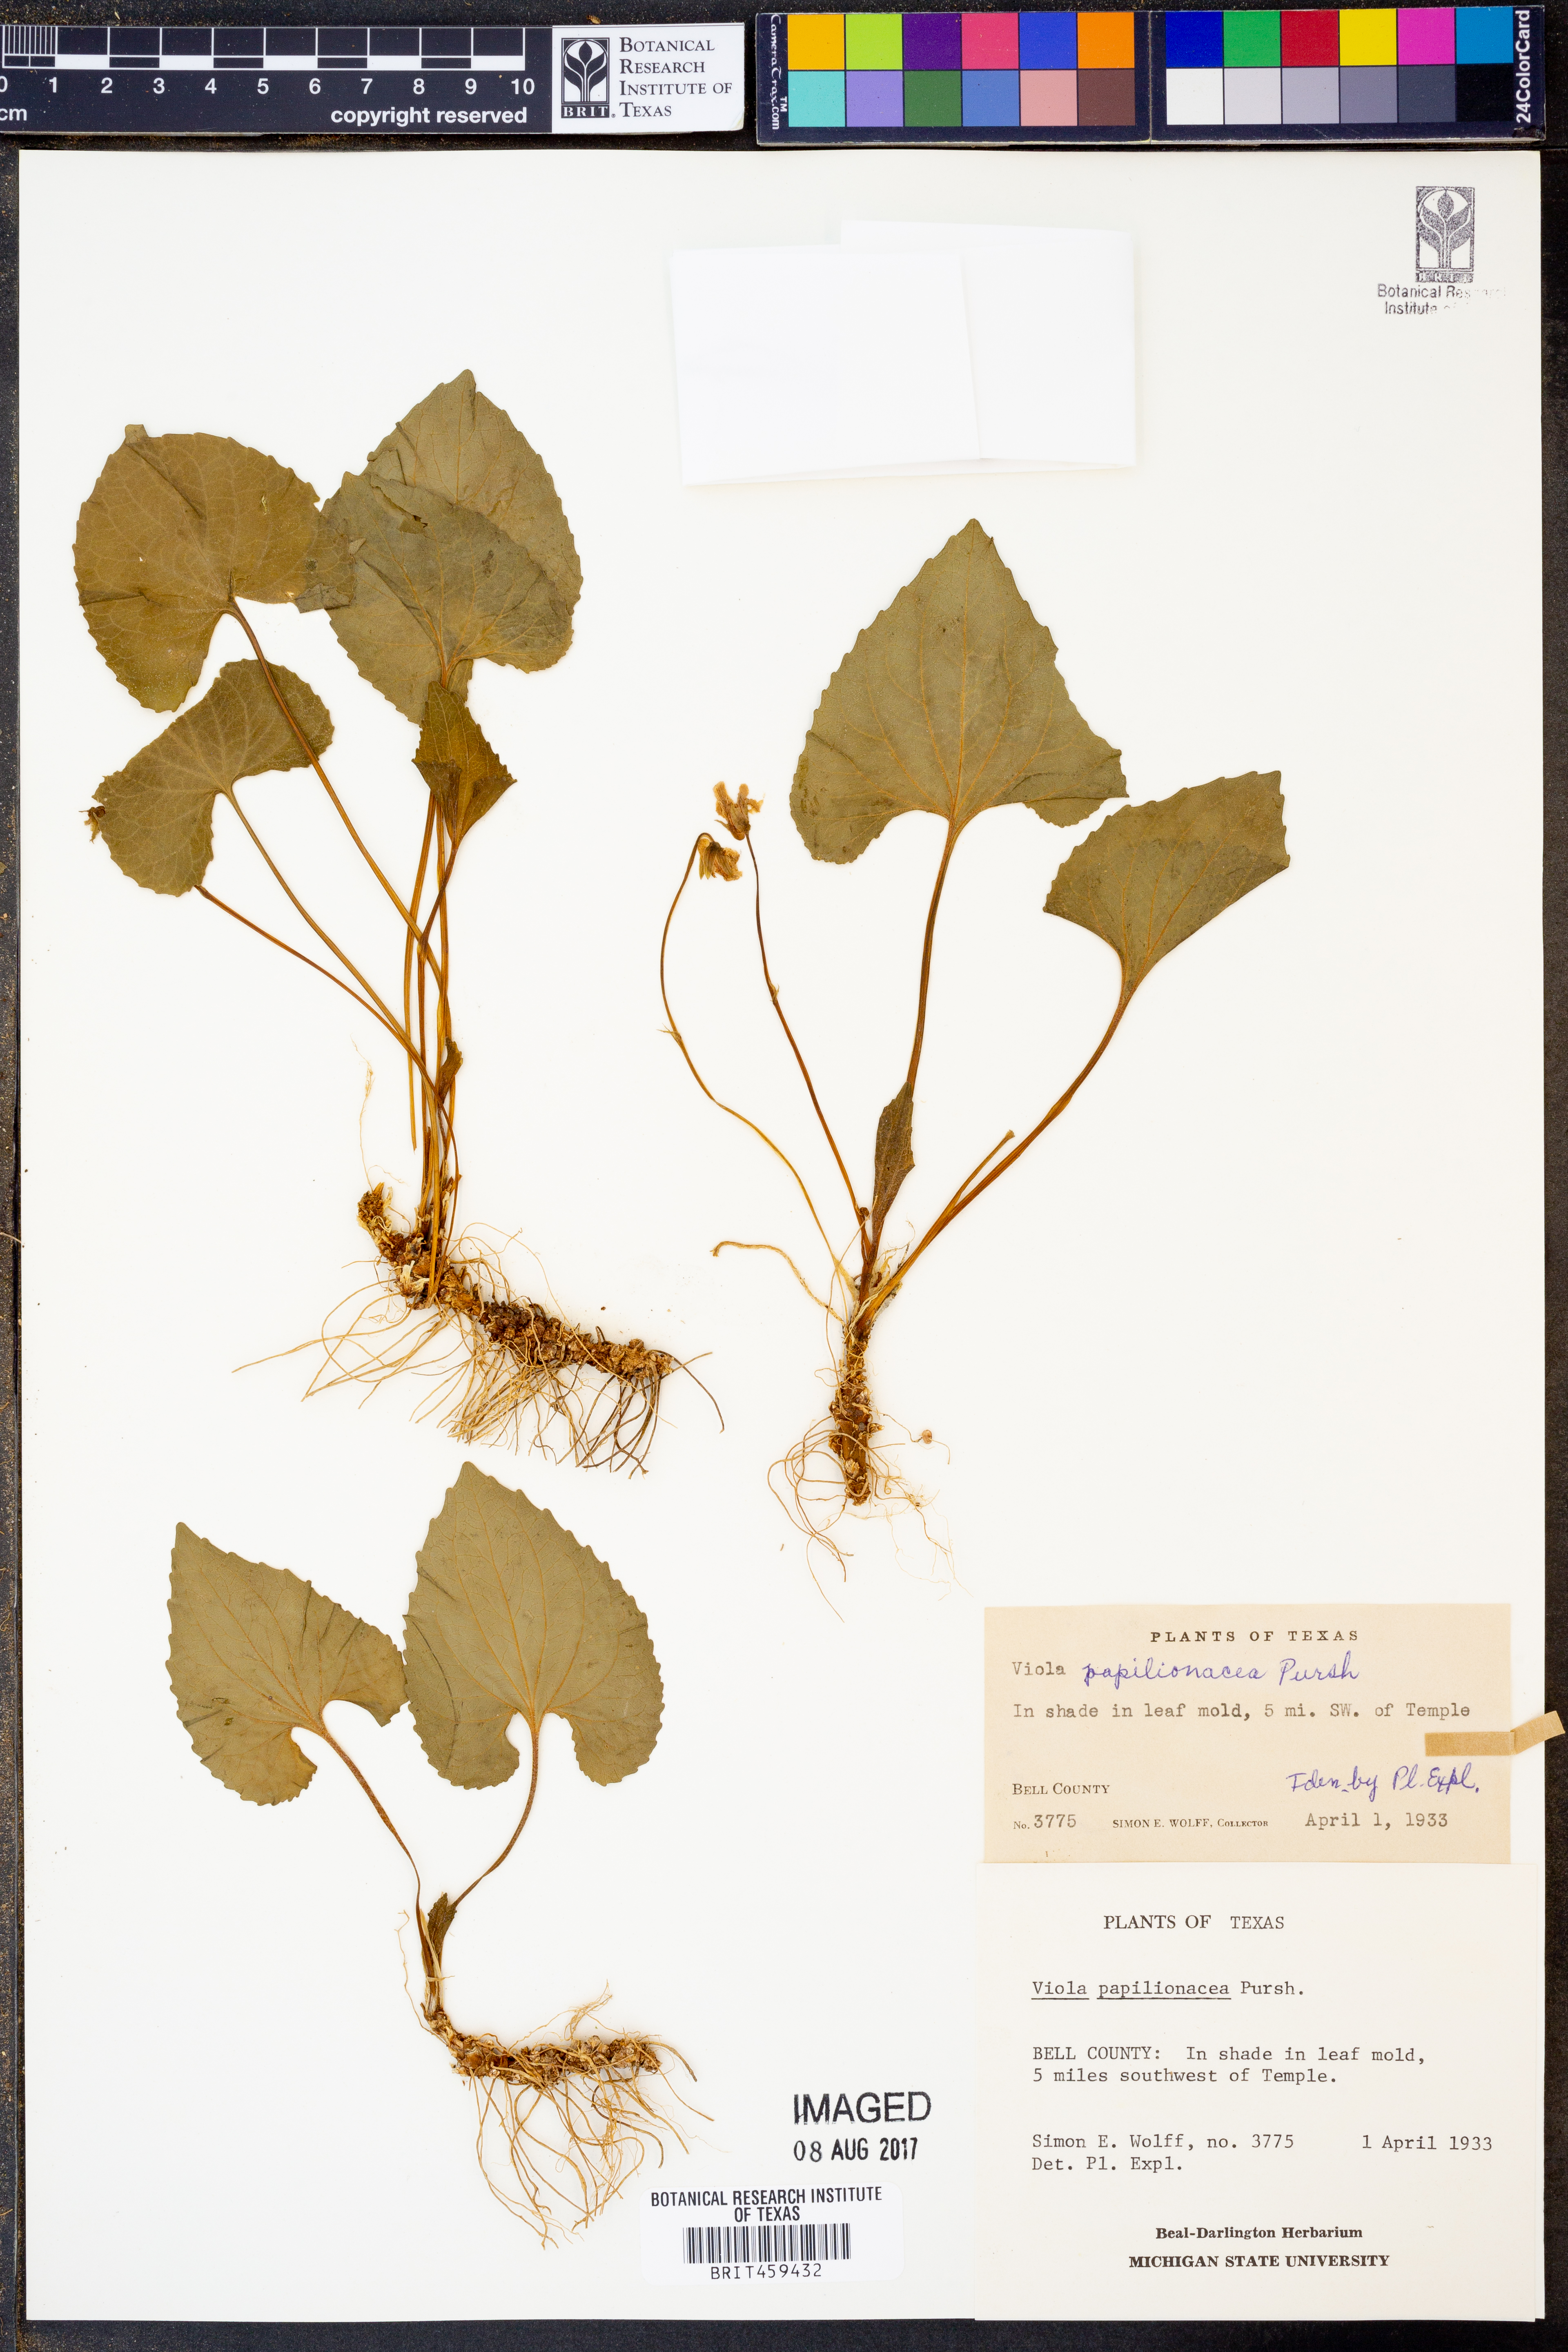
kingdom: Plantae
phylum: Tracheophyta
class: Magnoliopsida
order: Malpighiales
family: Violaceae
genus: Viola
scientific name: Viola sororia
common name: Dooryard violet
